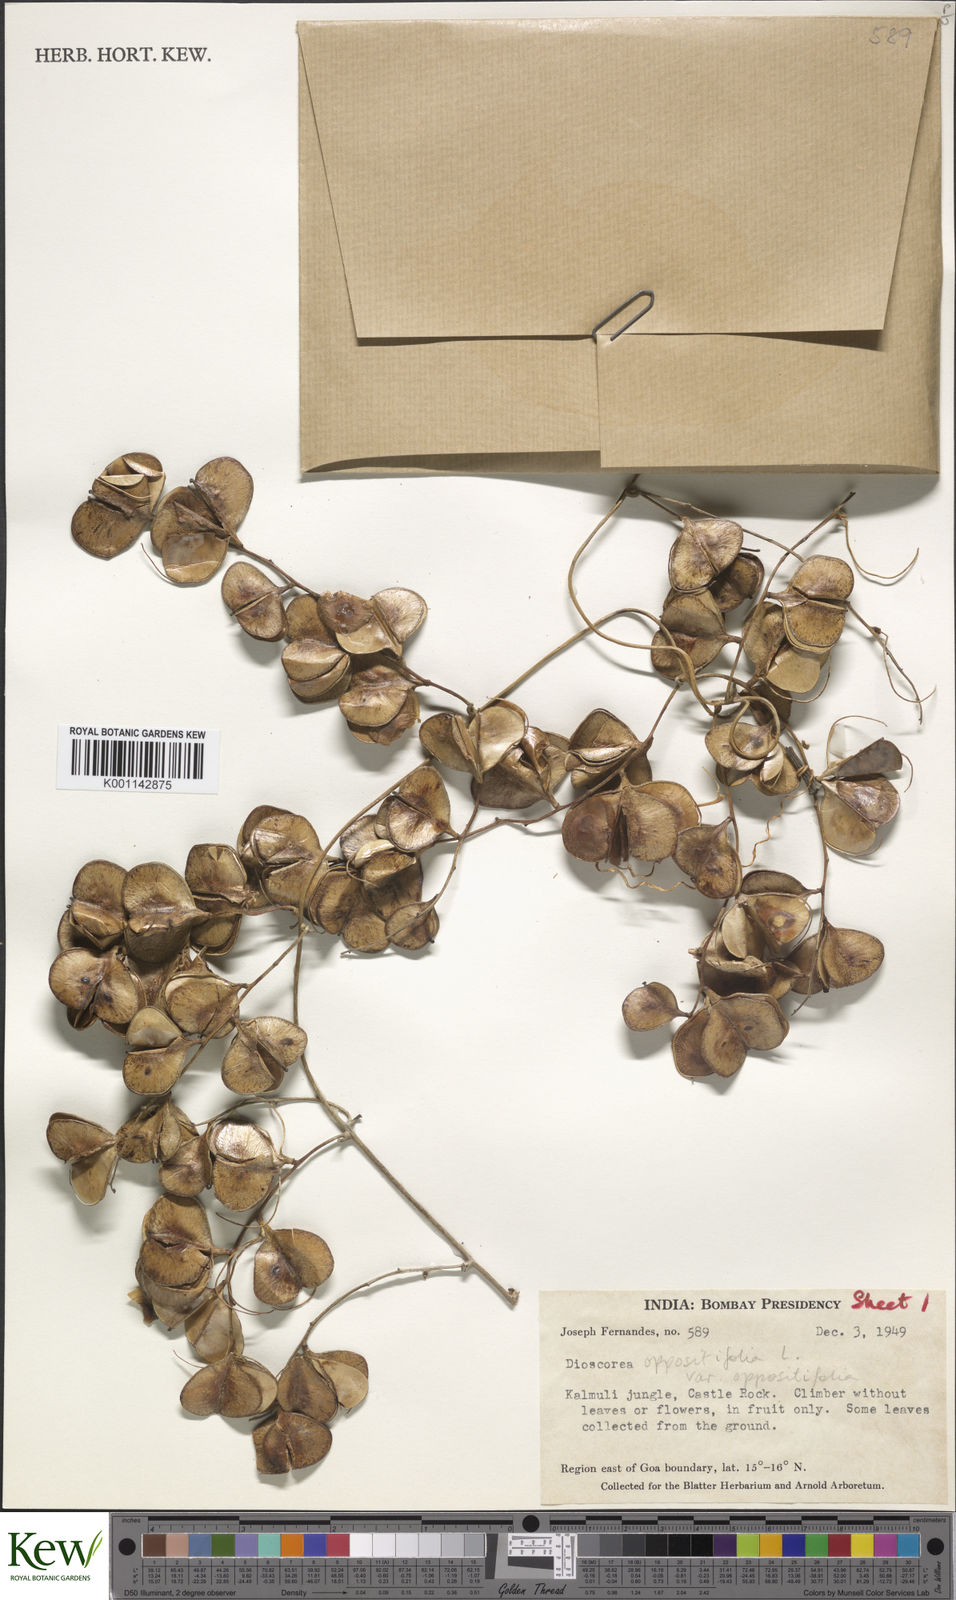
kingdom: Plantae
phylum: Tracheophyta
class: Liliopsida
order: Dioscoreales
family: Dioscoreaceae
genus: Dioscorea
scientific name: Dioscorea oppositifolia
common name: Chinese yam
